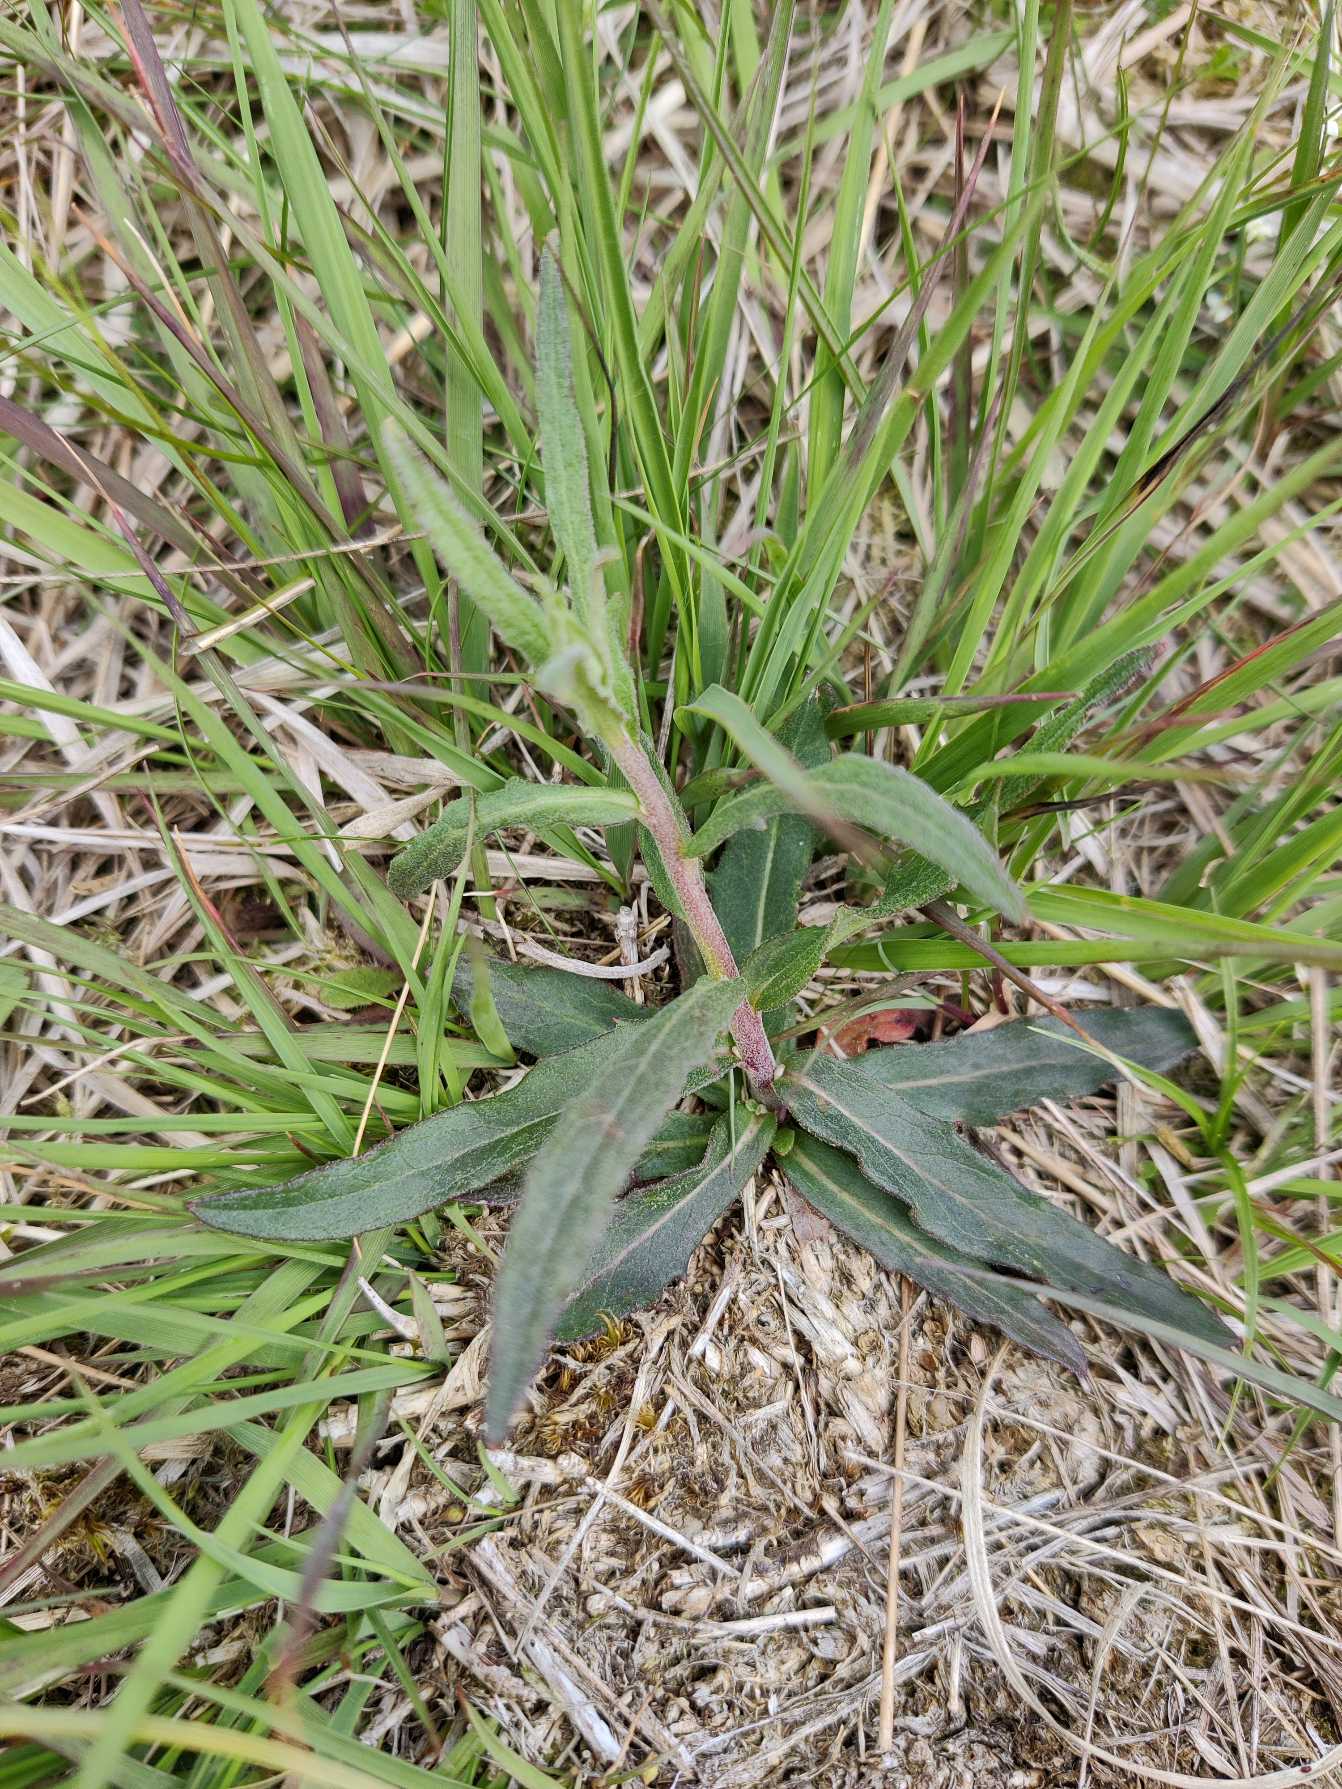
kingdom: Plantae
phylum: Tracheophyta
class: Magnoliopsida
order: Asterales
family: Asteraceae
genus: Hieracium
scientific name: Hieracium
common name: Høgeurt (Hieracium-slægten)
